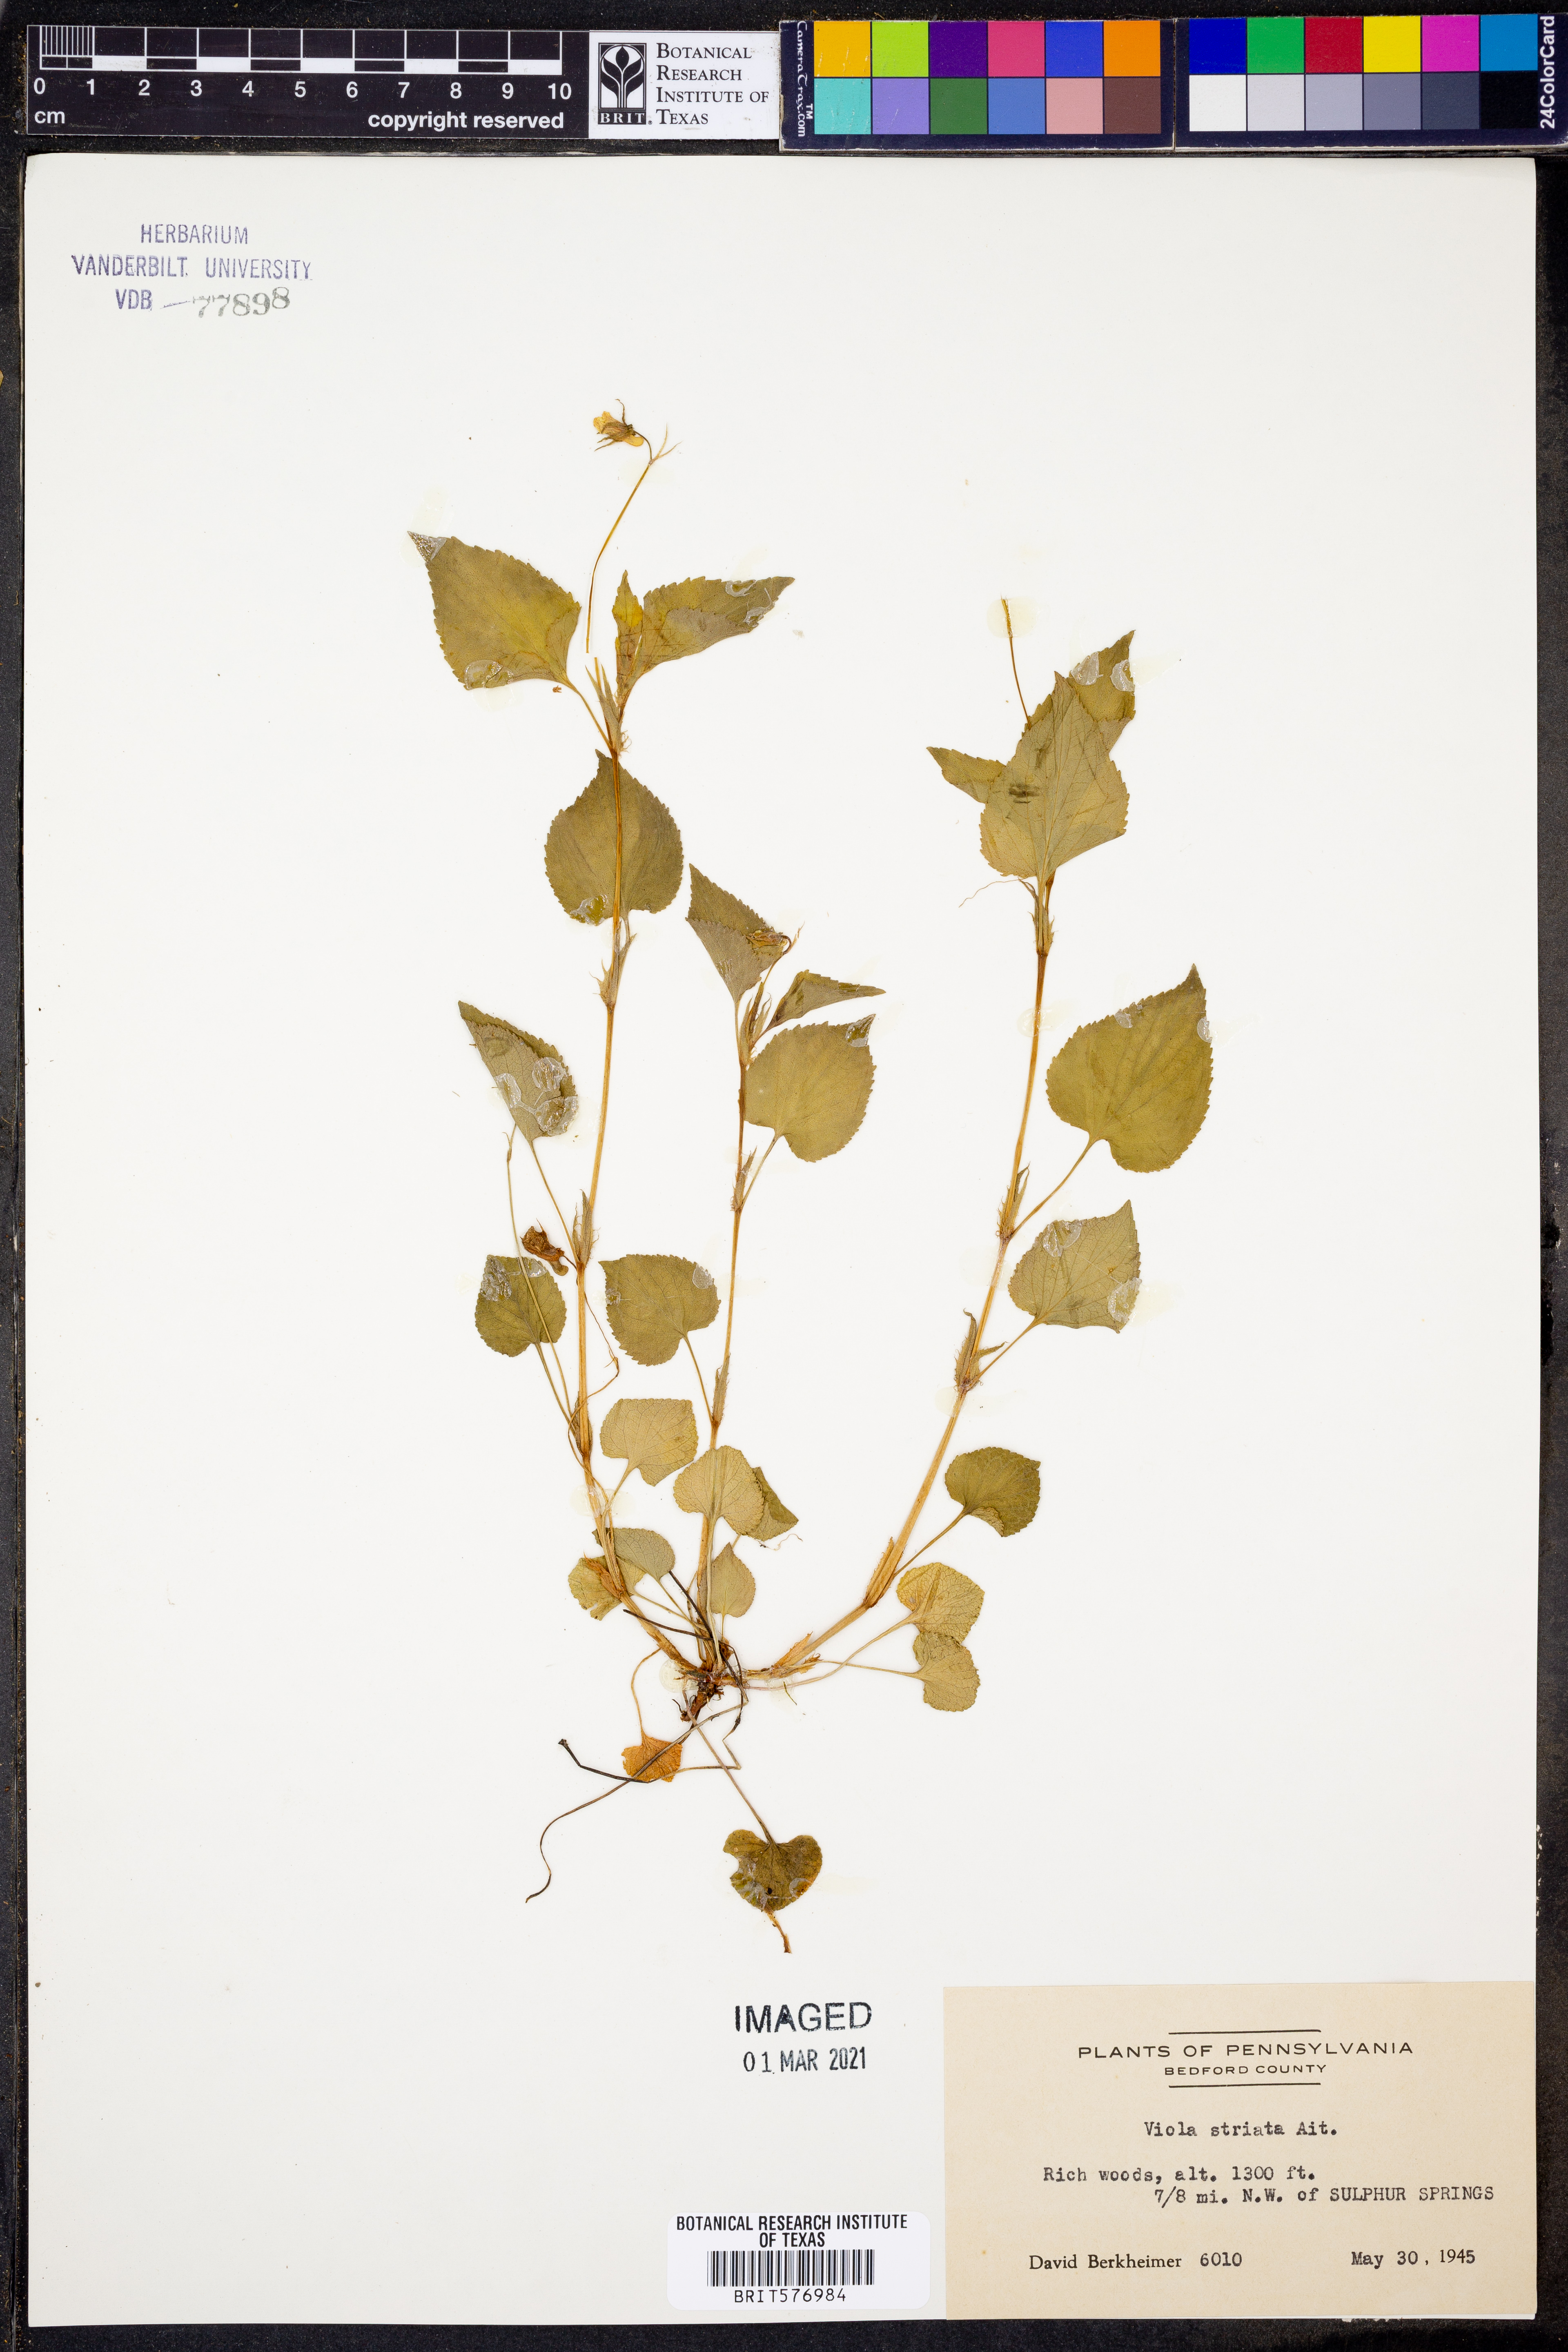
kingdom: Plantae
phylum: Tracheophyta
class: Magnoliopsida
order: Malpighiales
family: Violaceae
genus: Viola
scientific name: Viola striata
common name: Cream violet
